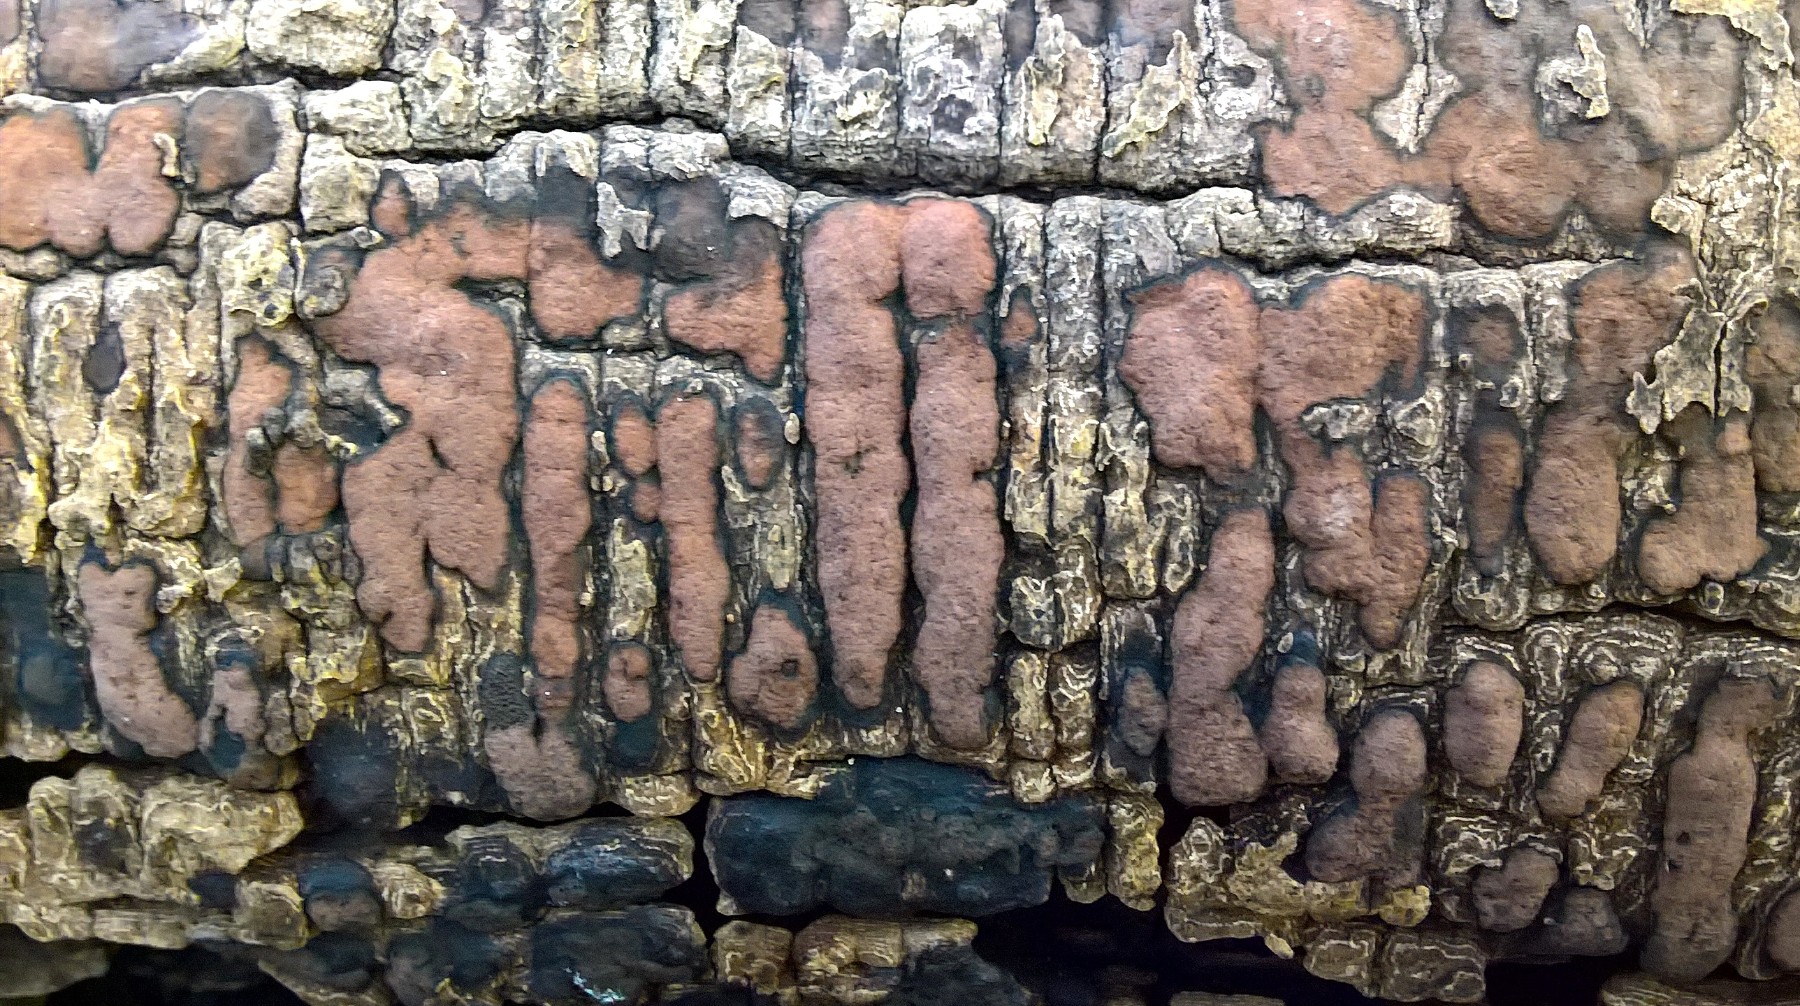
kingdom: Fungi
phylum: Ascomycota
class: Sordariomycetes
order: Xylariales
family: Hypoxylaceae
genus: Hypoxylon
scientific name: Hypoxylon petriniae
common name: nedsænket kulbær
